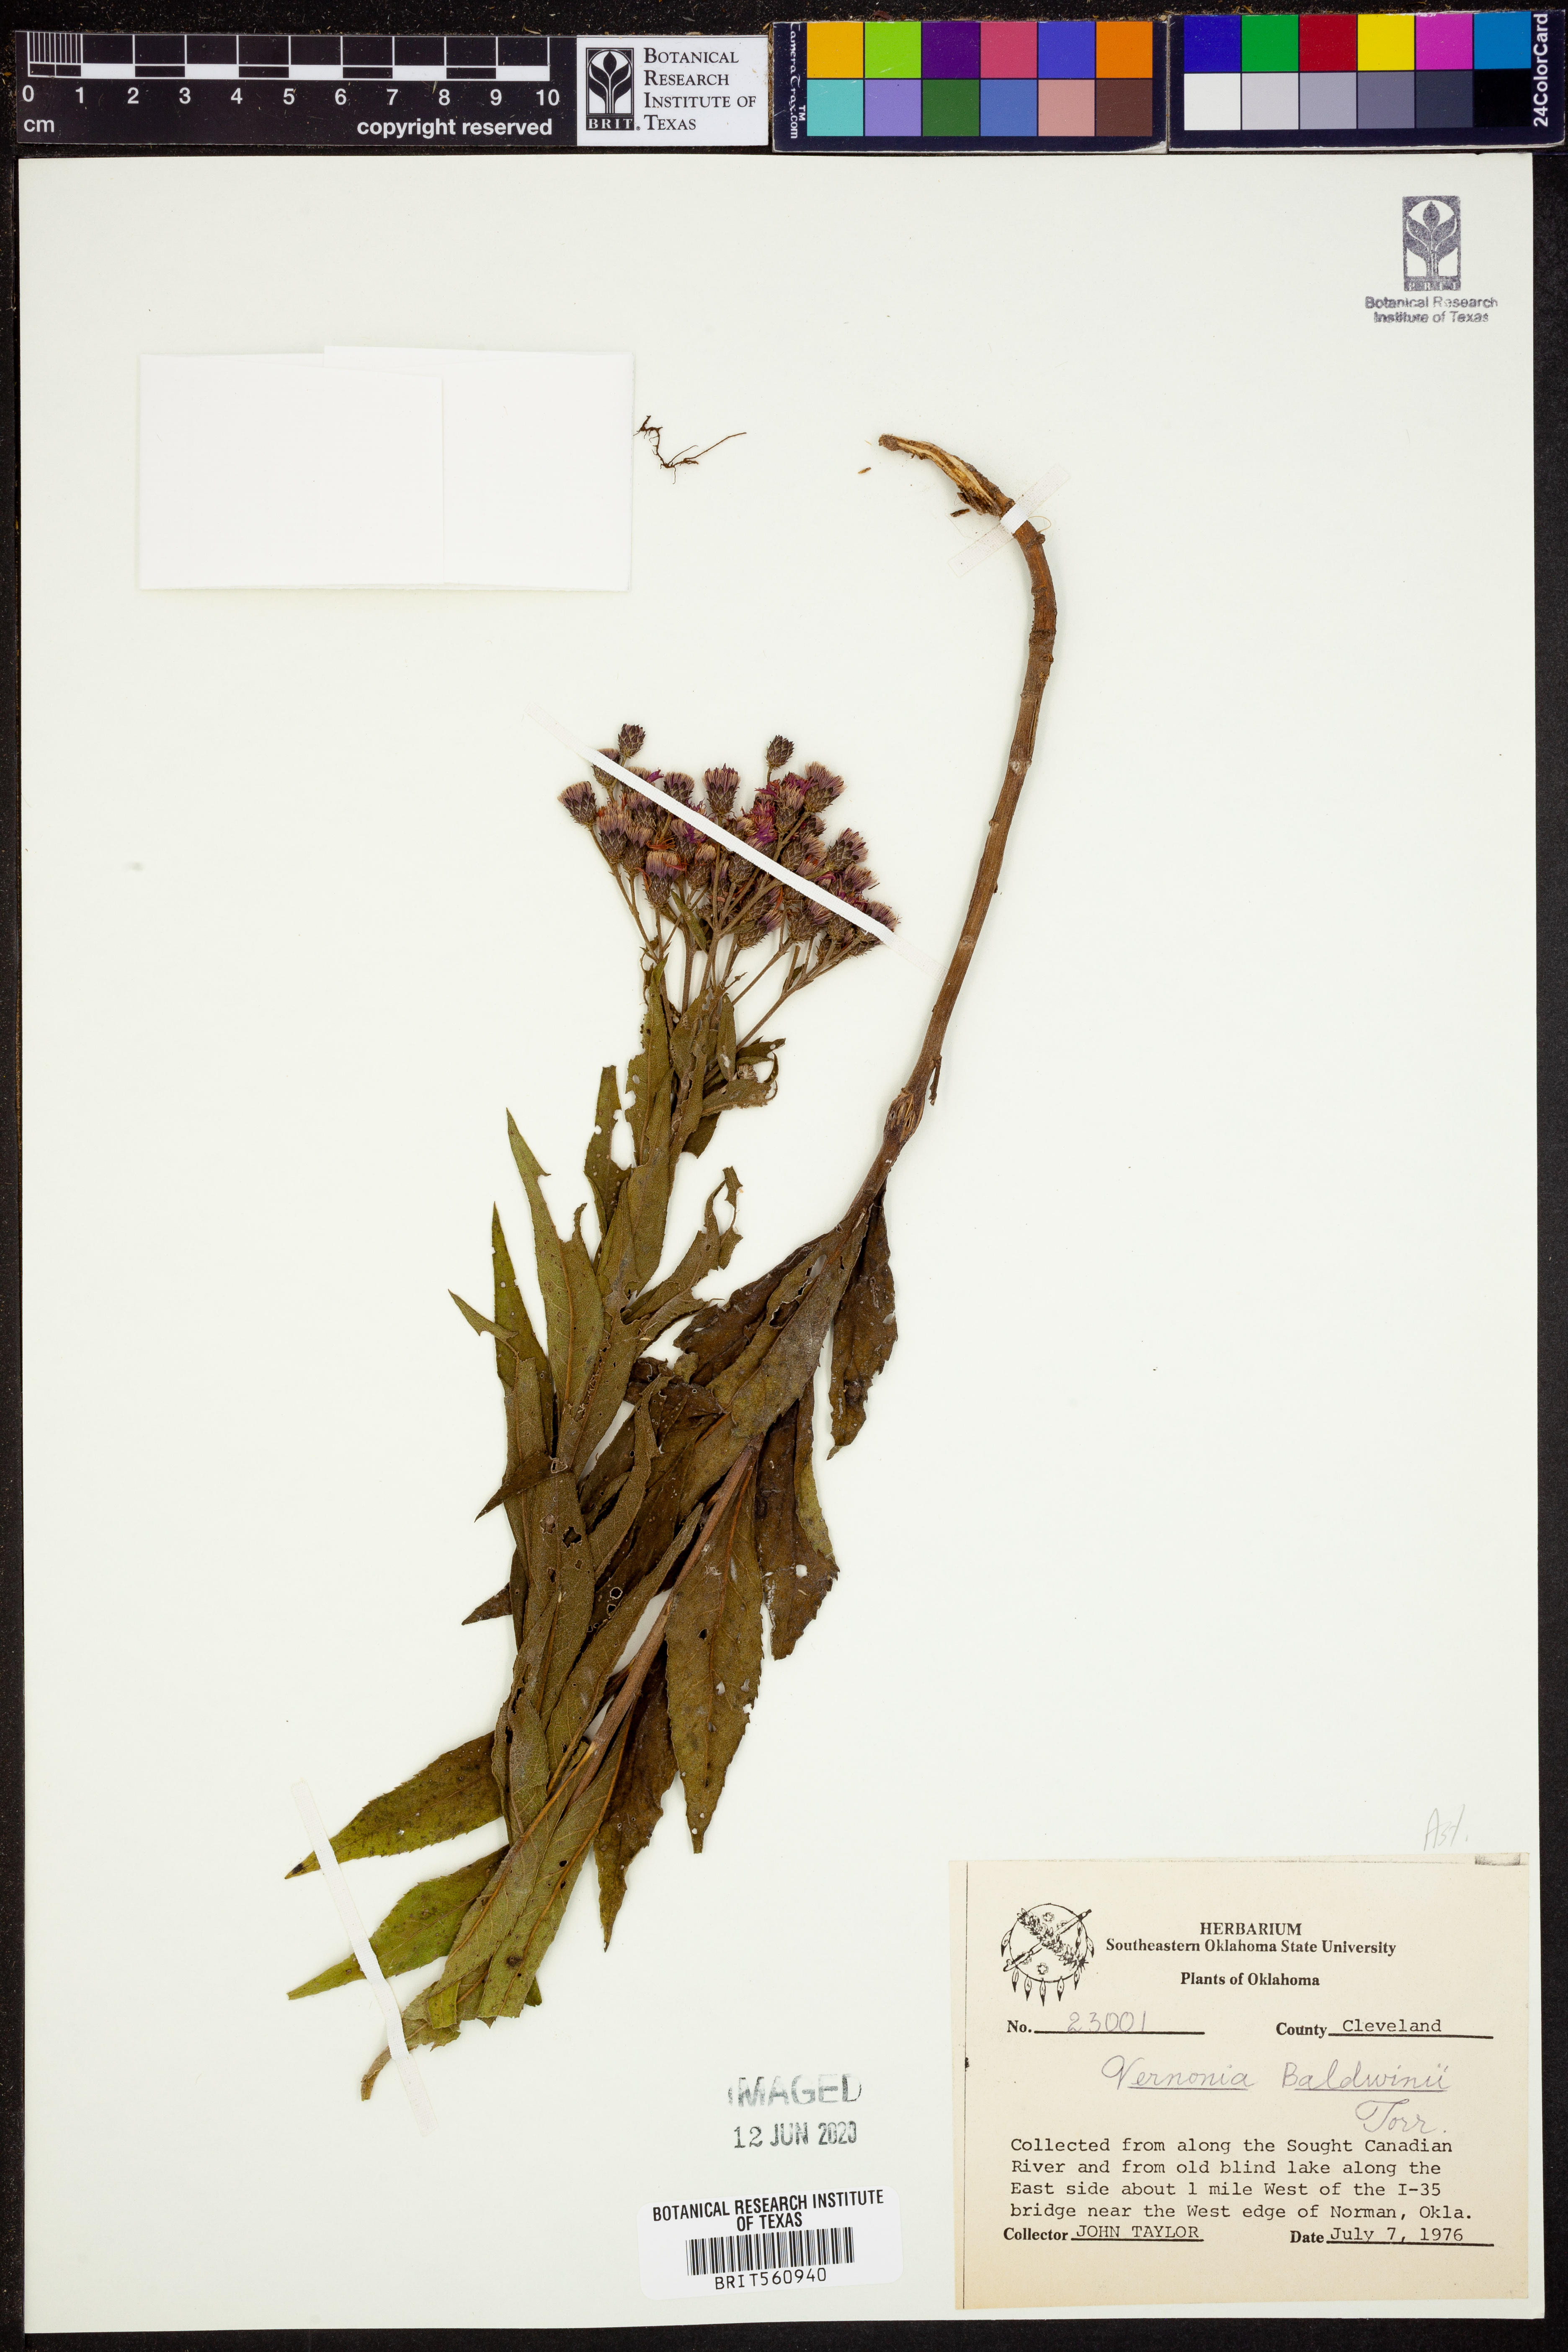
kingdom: Plantae
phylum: Tracheophyta
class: Magnoliopsida
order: Asterales
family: Asteraceae
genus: Vernonia
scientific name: Vernonia baldwinii
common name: Western ironweed
